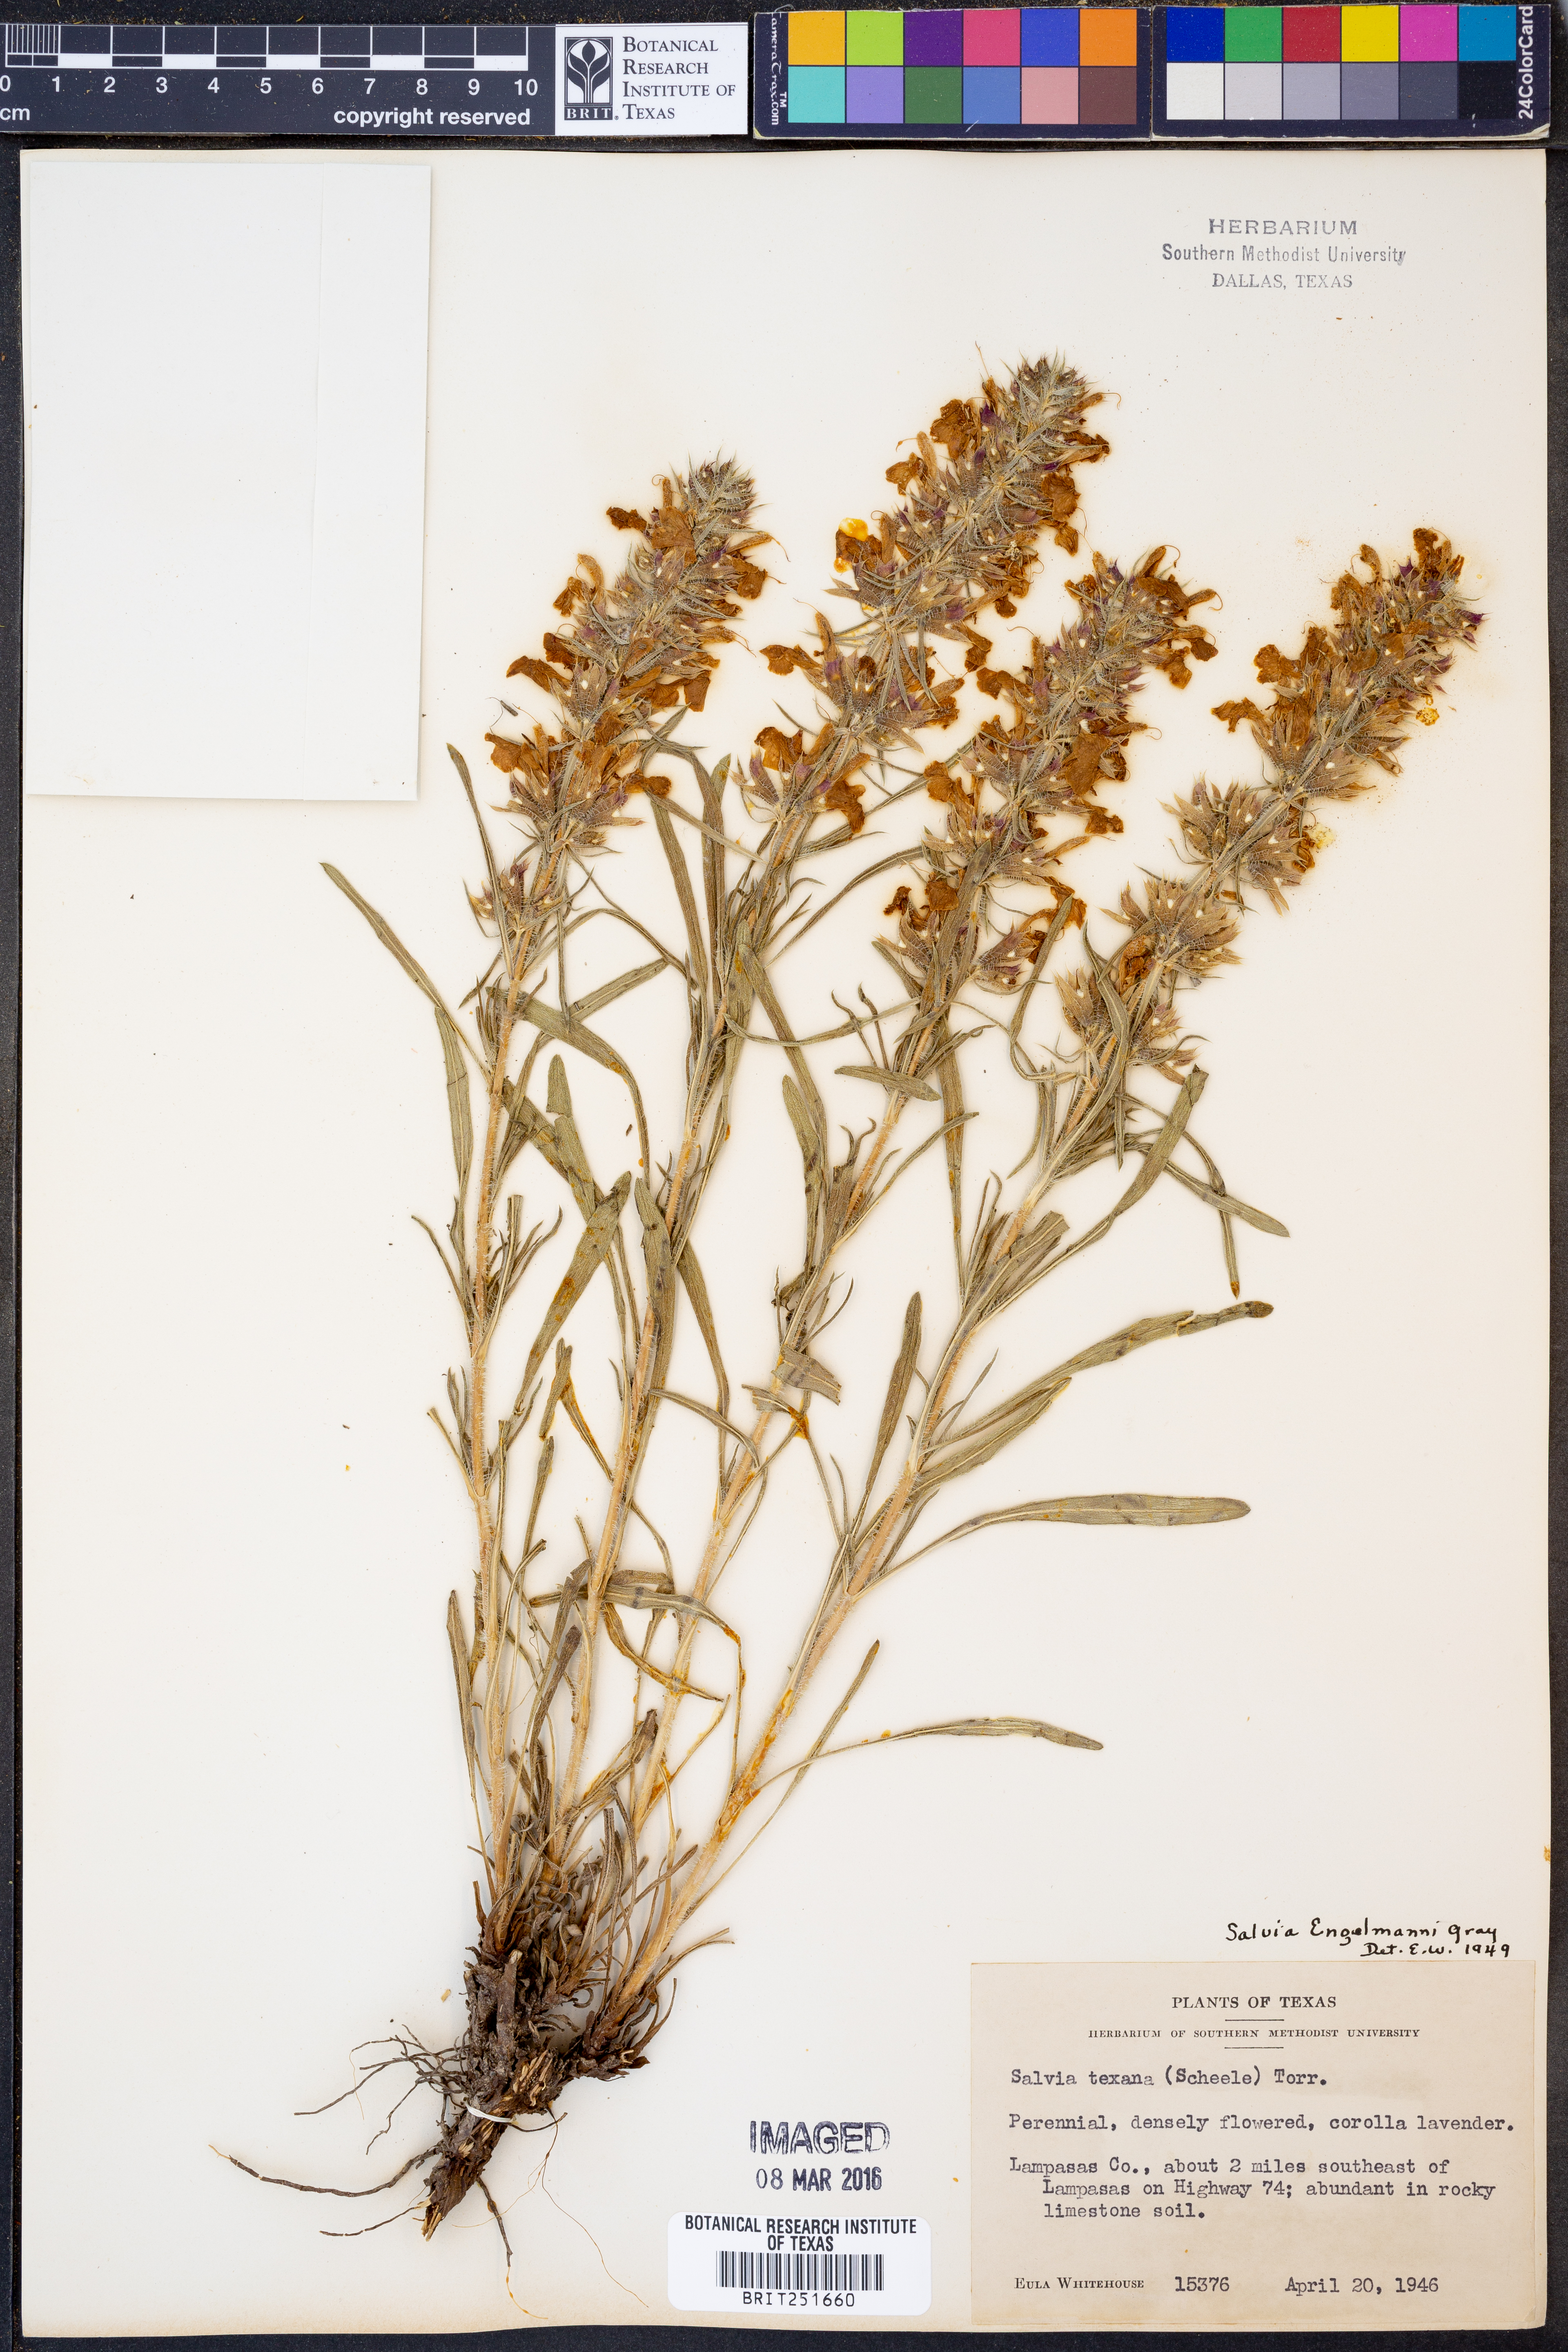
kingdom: Plantae
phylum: Tracheophyta
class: Magnoliopsida
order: Lamiales
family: Lamiaceae
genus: Salvia
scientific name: Salvia engelmannii
